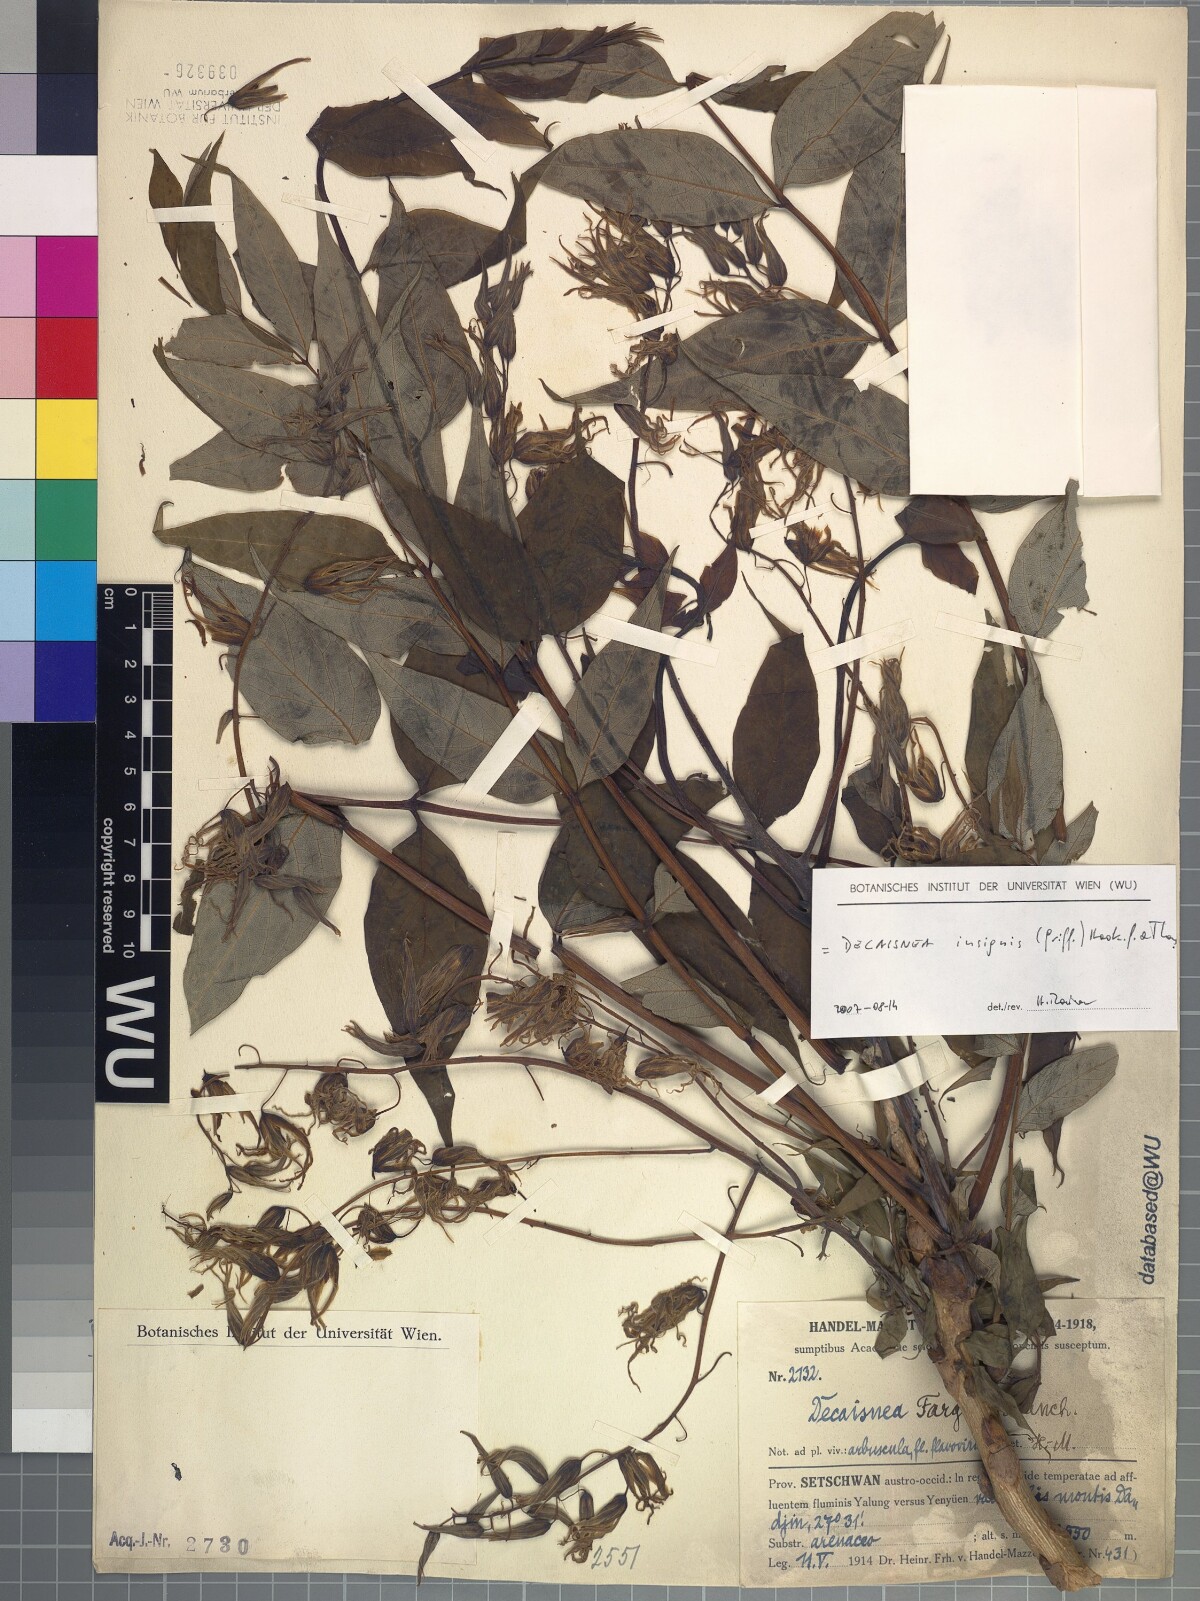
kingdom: Plantae
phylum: Tracheophyta
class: Magnoliopsida
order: Ranunculales
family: Lardizabalaceae
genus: Decaisnea
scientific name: Decaisnea insignis
